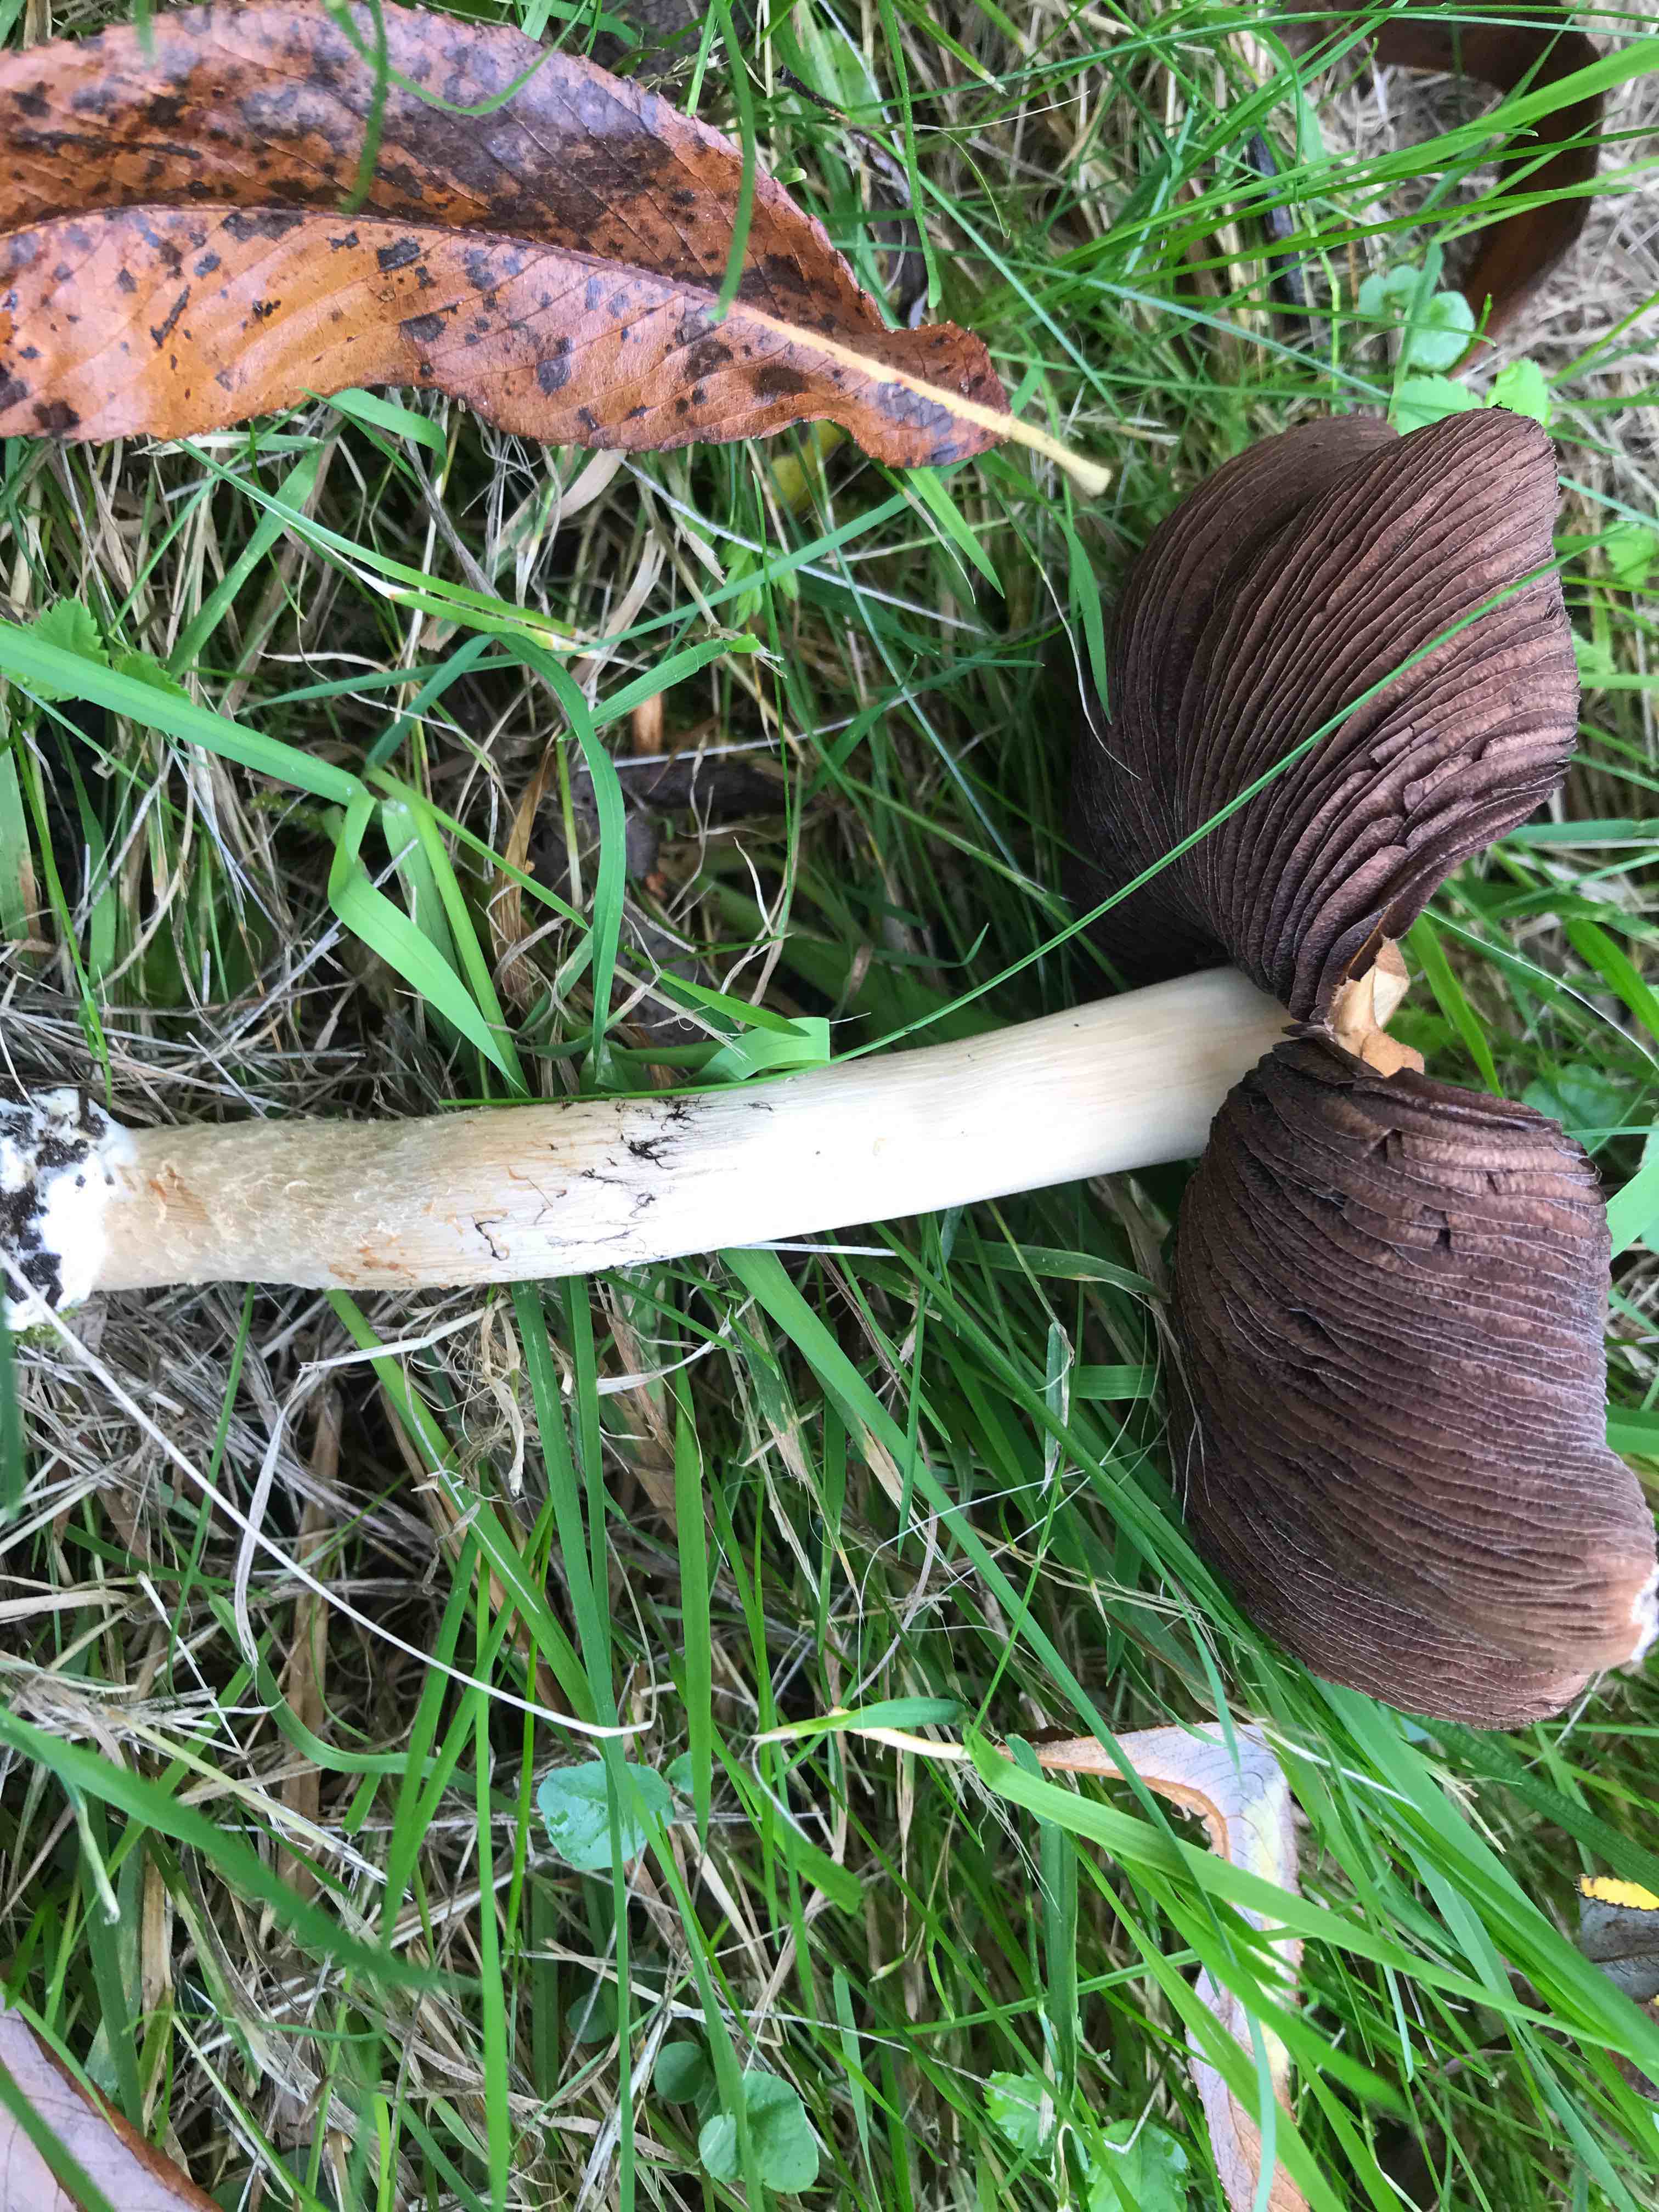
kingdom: Fungi
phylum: Basidiomycota
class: Agaricomycetes
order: Agaricales
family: Psathyrellaceae
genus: Lacrymaria
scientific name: Lacrymaria lacrymabunda
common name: grædende mørkhat
